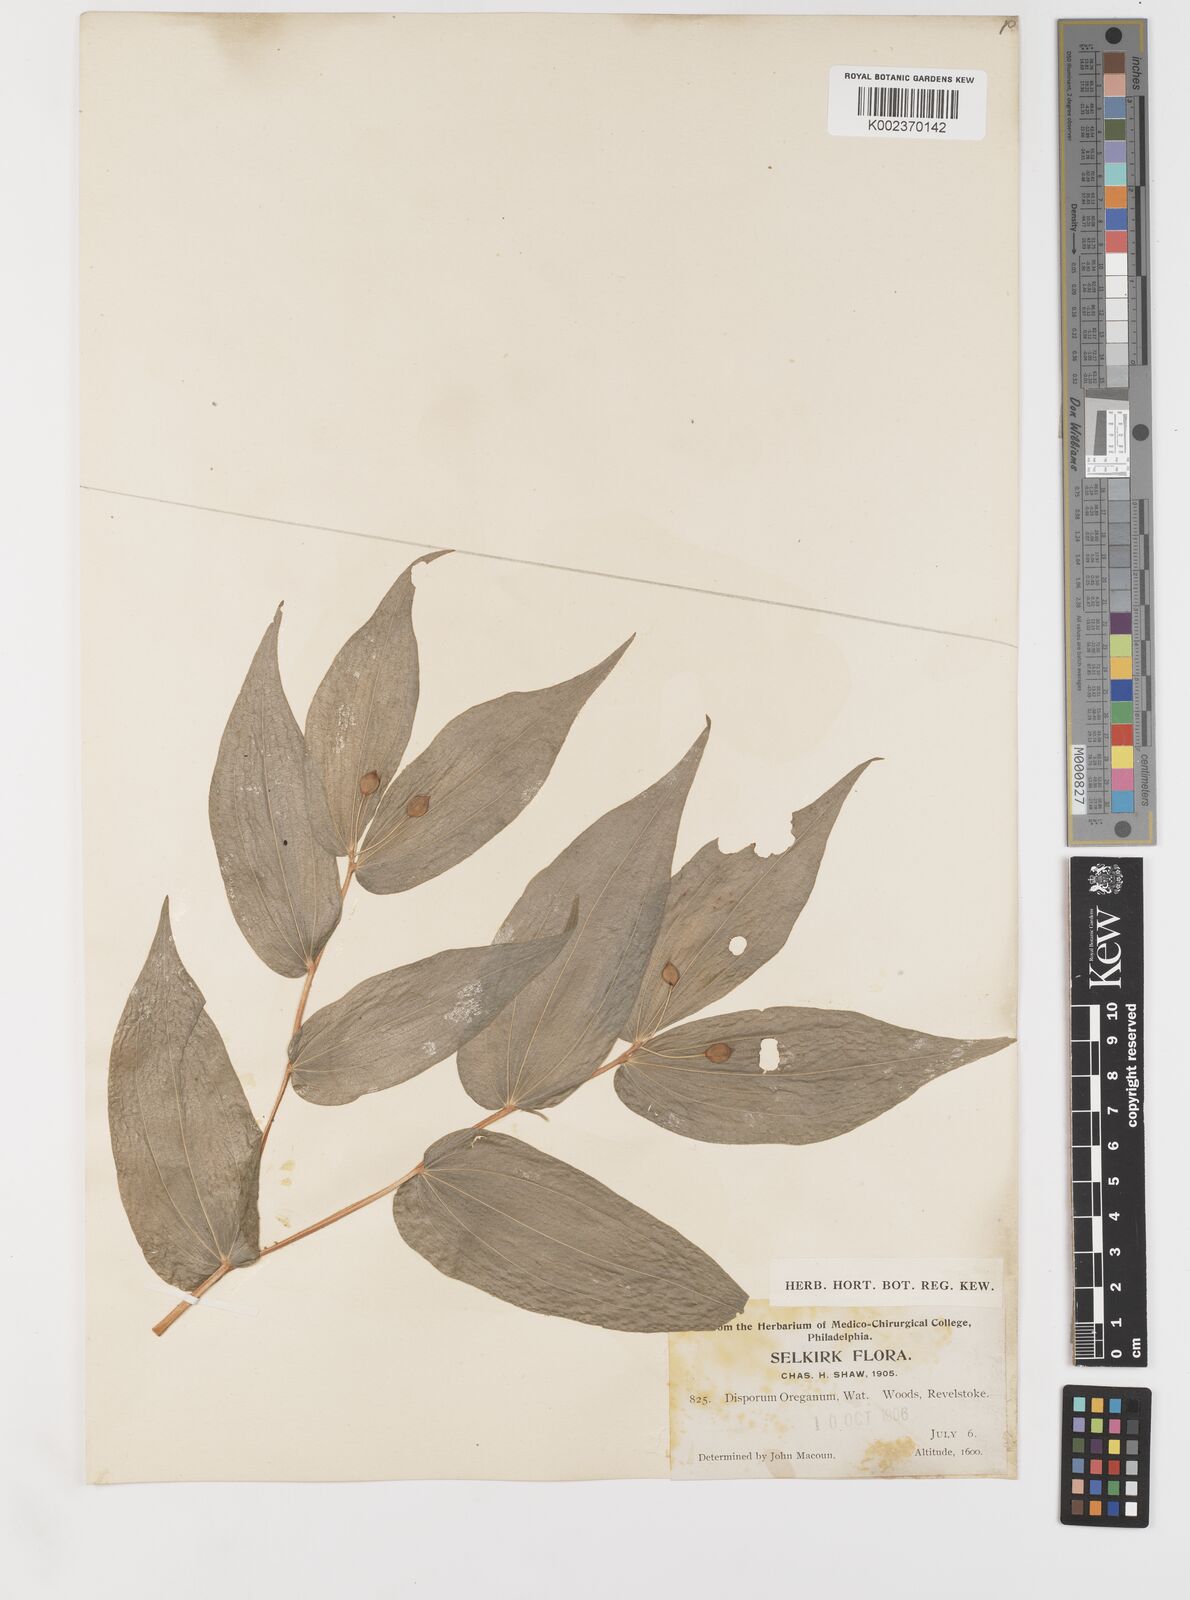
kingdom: Plantae
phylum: Tracheophyta
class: Liliopsida
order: Liliales
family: Liliaceae
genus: Prosartes
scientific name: Prosartes hookeri
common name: Fairy-bells
